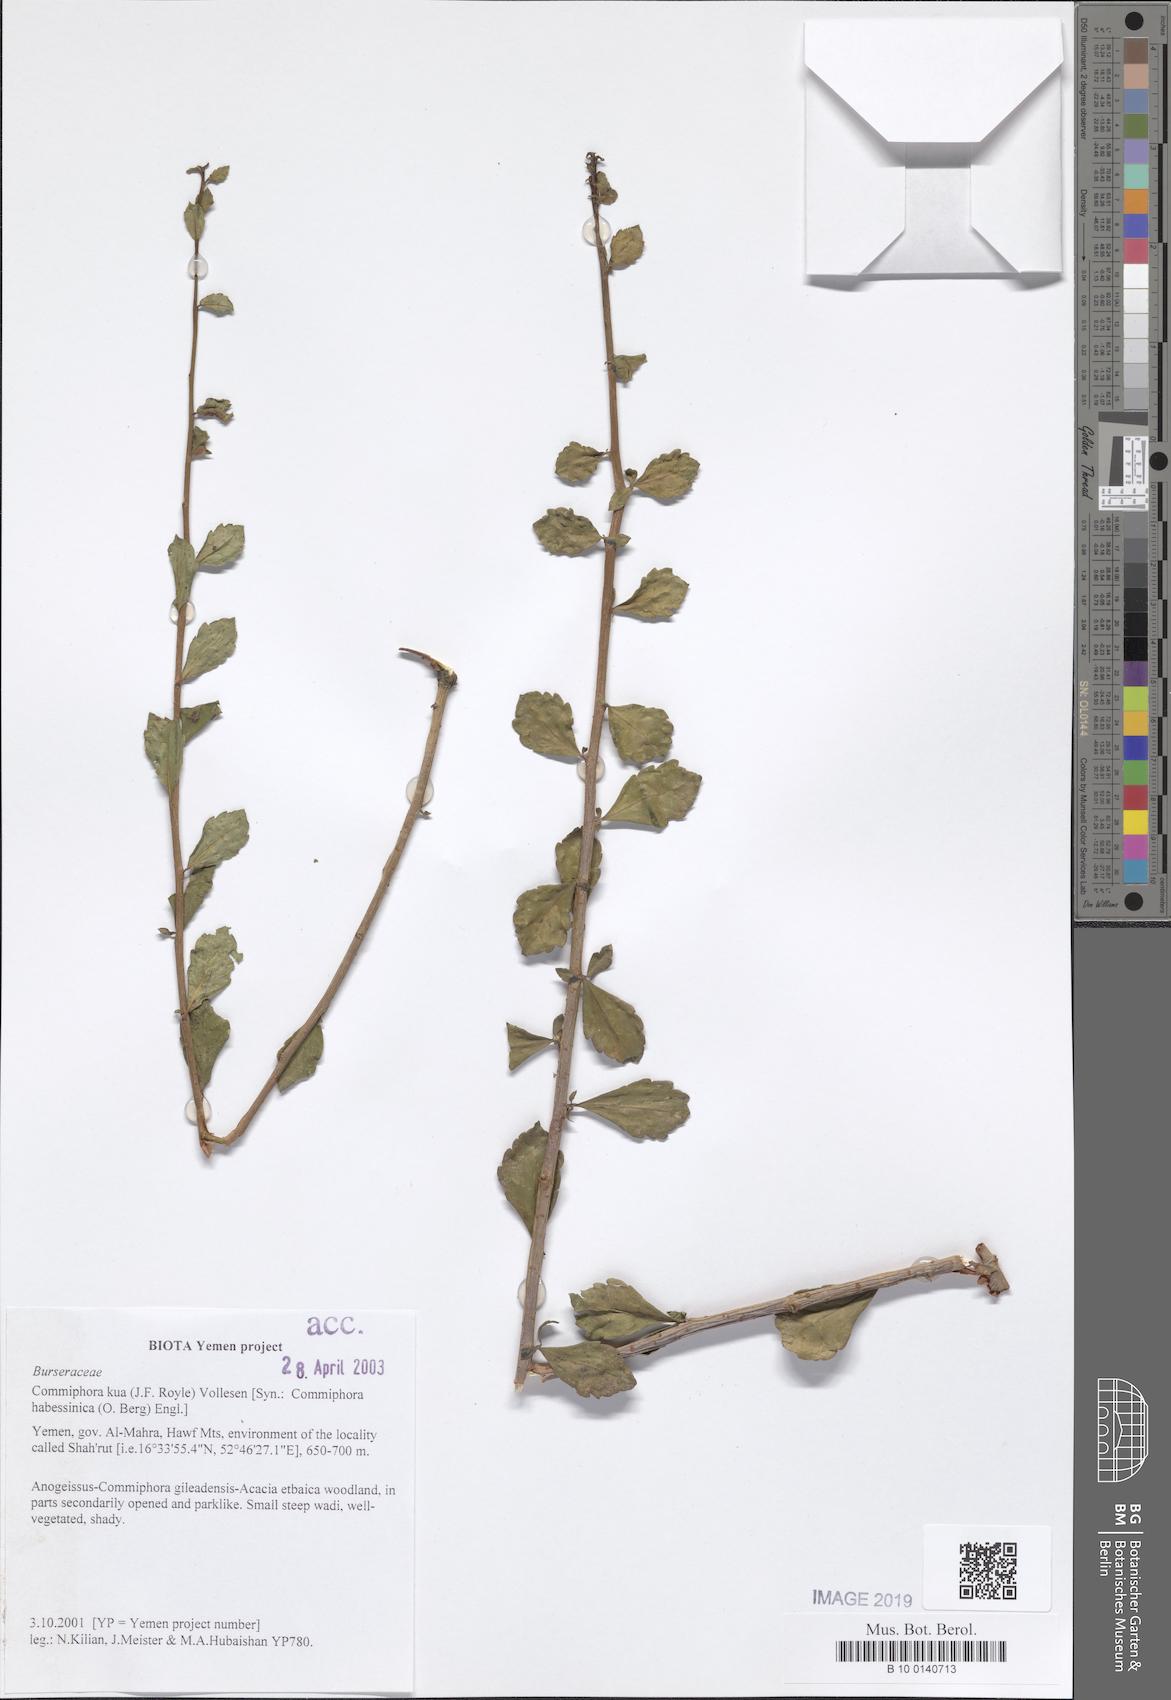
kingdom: Plantae
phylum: Tracheophyta
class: Magnoliopsida
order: Sapindales
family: Burseraceae
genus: Commiphora
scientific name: Commiphora kua
